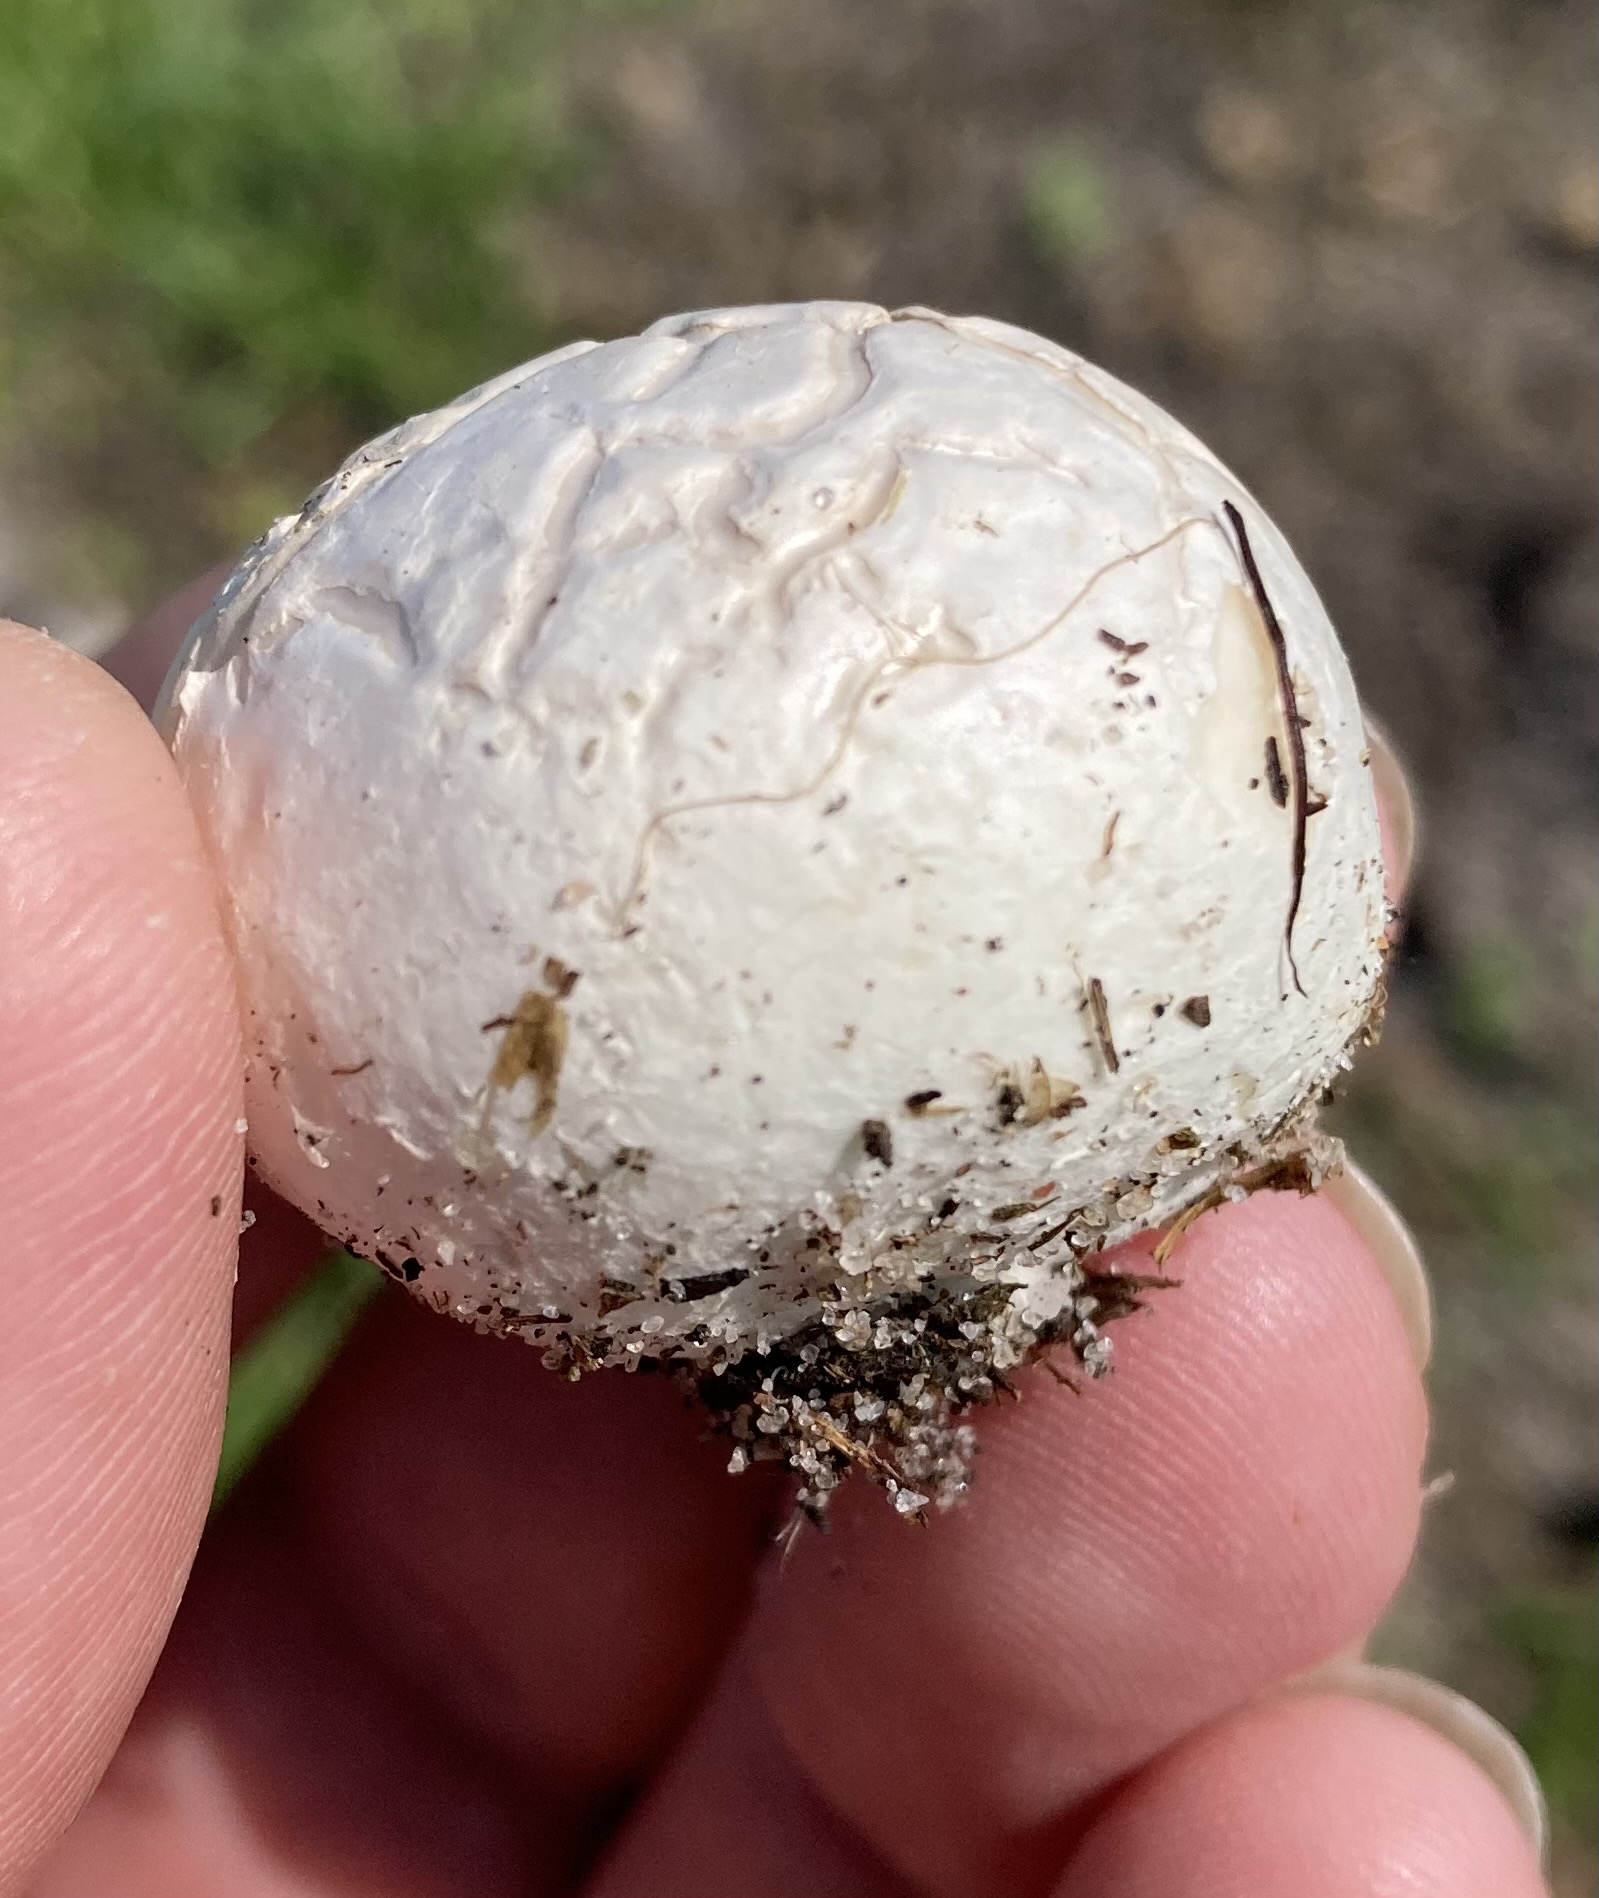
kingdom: Fungi
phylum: Basidiomycota
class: Agaricomycetes
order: Agaricales
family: Lycoperdaceae
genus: Bovista
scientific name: Bovista plumbea
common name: blygrå bovist
